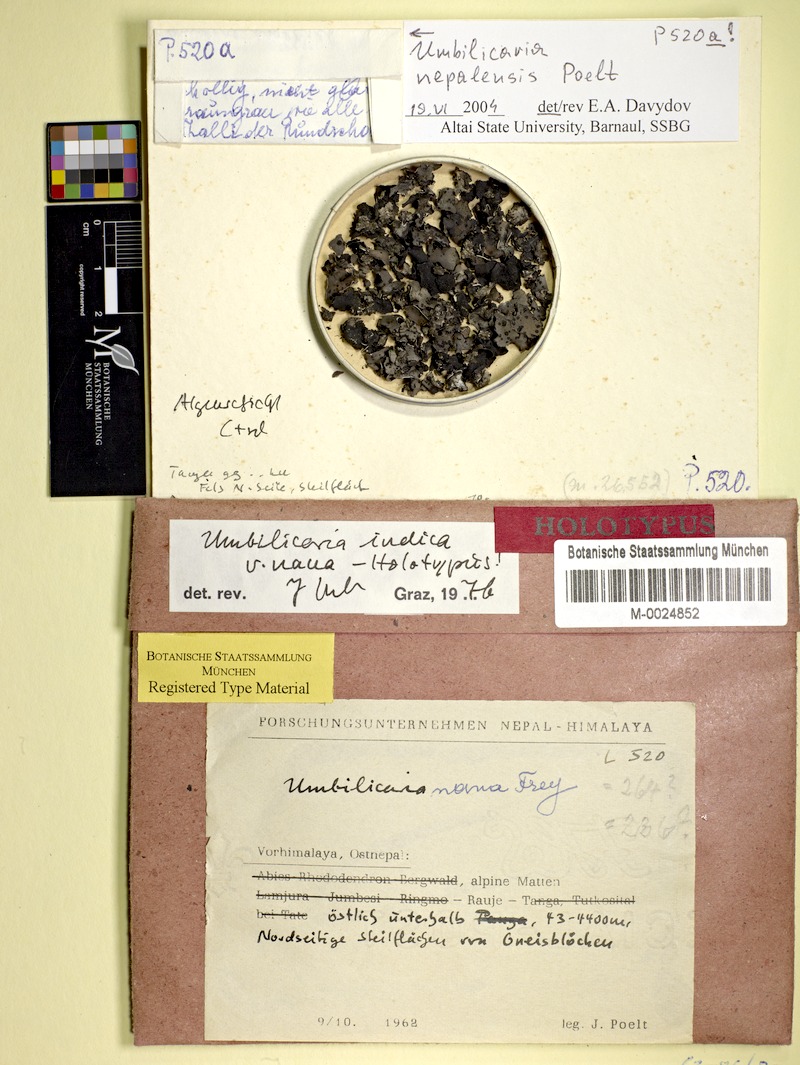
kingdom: Fungi
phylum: Ascomycota
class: Lecanoromycetes
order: Umbilicariales
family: Umbilicariaceae
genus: Umbilicaria
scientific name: Umbilicaria
